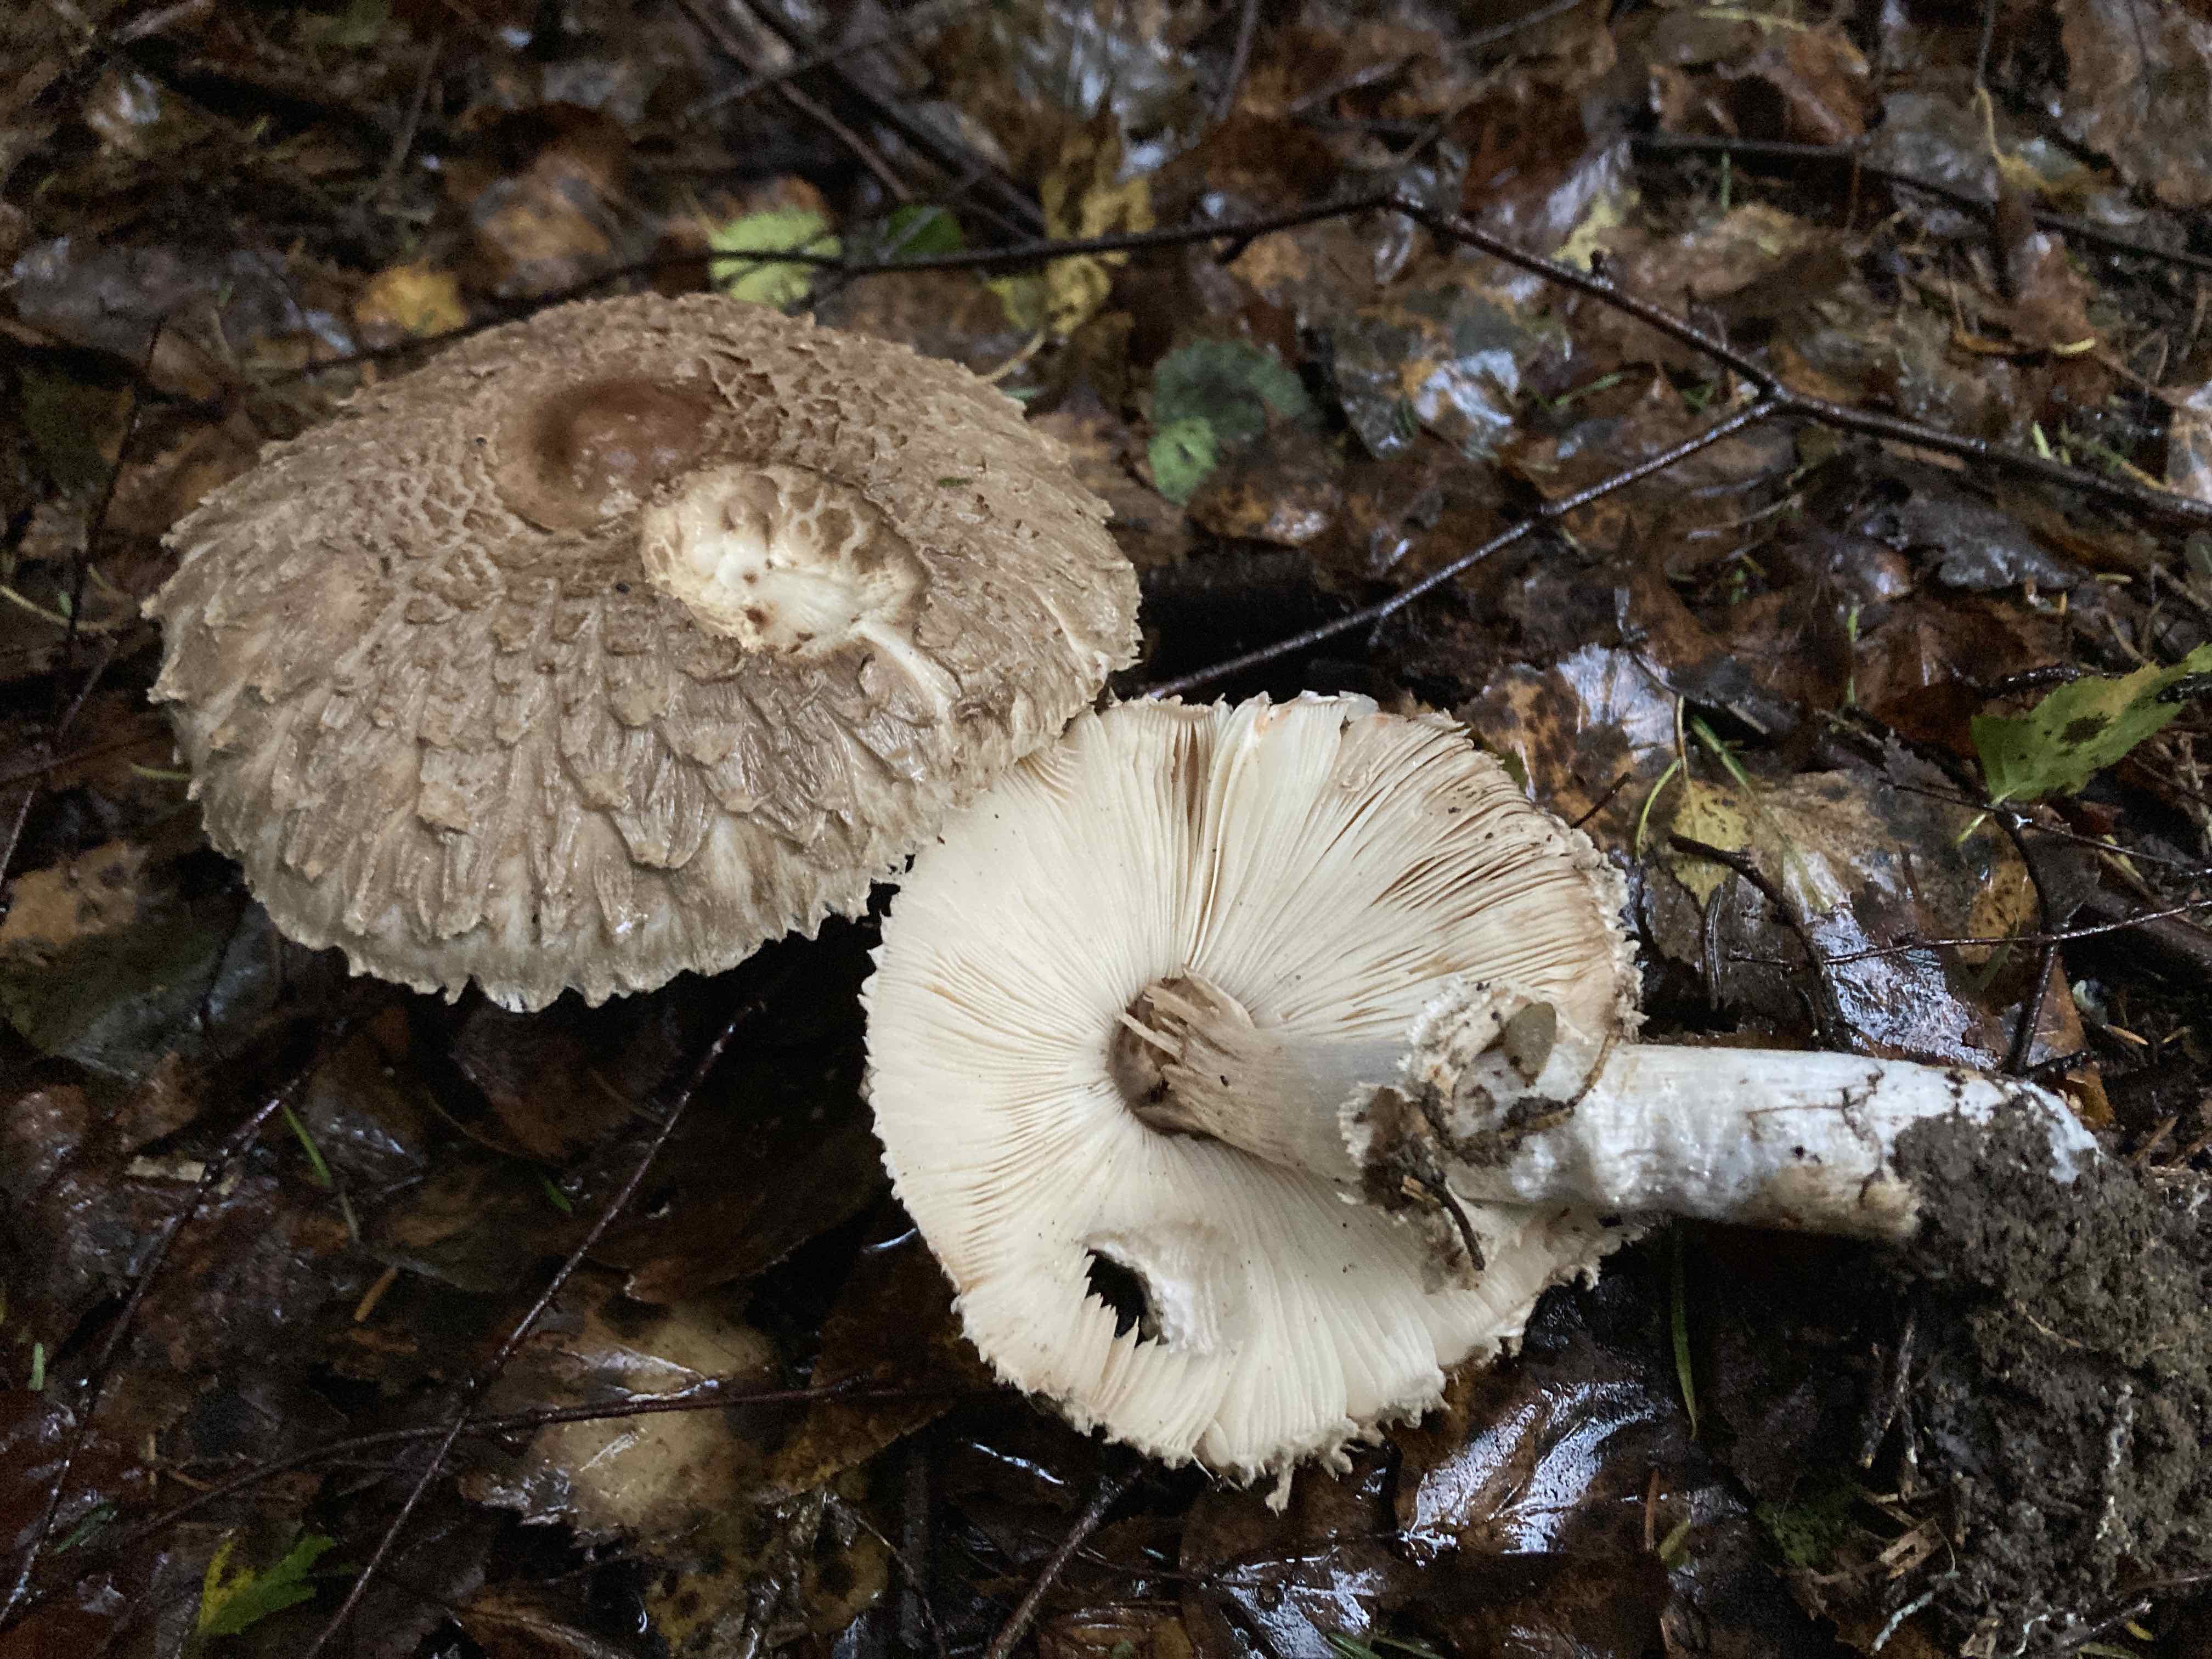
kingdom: Fungi
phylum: Basidiomycota
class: Agaricomycetes
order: Agaricales
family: Agaricaceae
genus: Chlorophyllum
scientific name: Chlorophyllum olivieri
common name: almindelig rabarberhat
